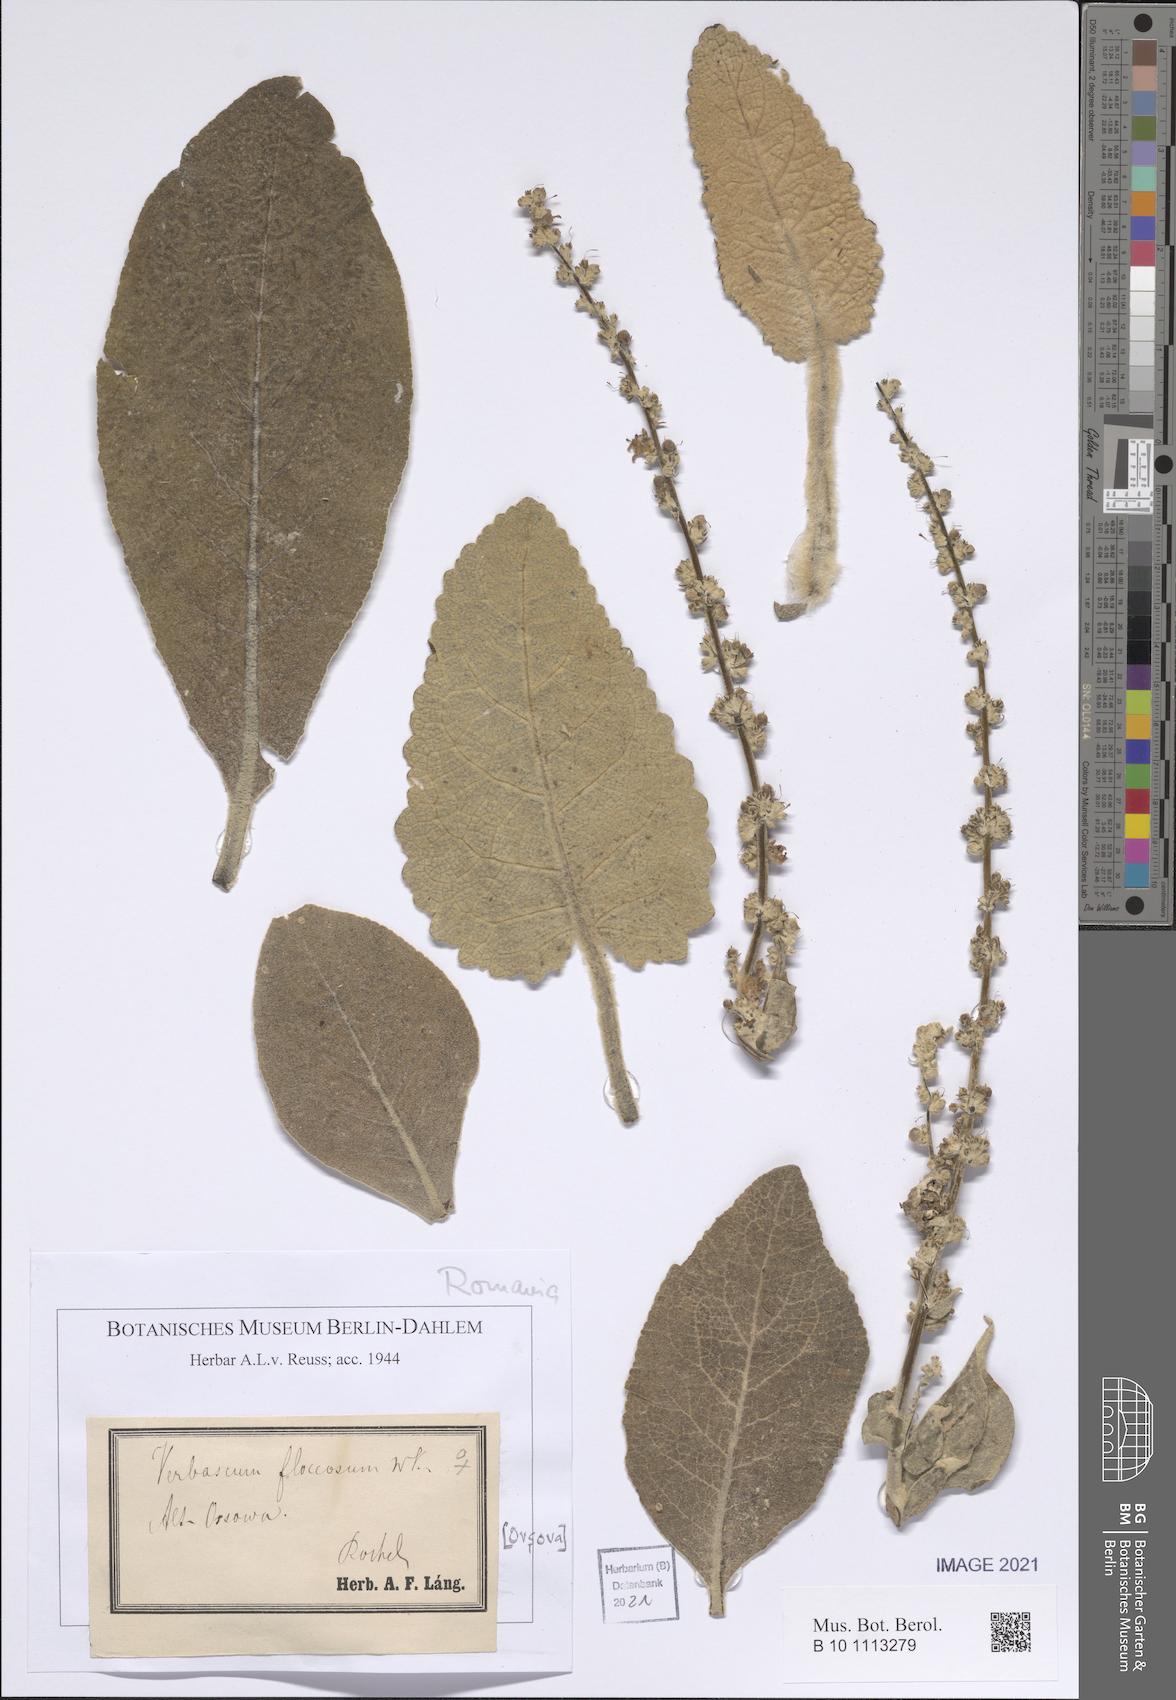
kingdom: Plantae
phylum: Tracheophyta
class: Magnoliopsida
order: Lamiales
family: Scrophulariaceae
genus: Verbascum
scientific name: Verbascum pulverulentum
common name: Broad-leaf mullein
